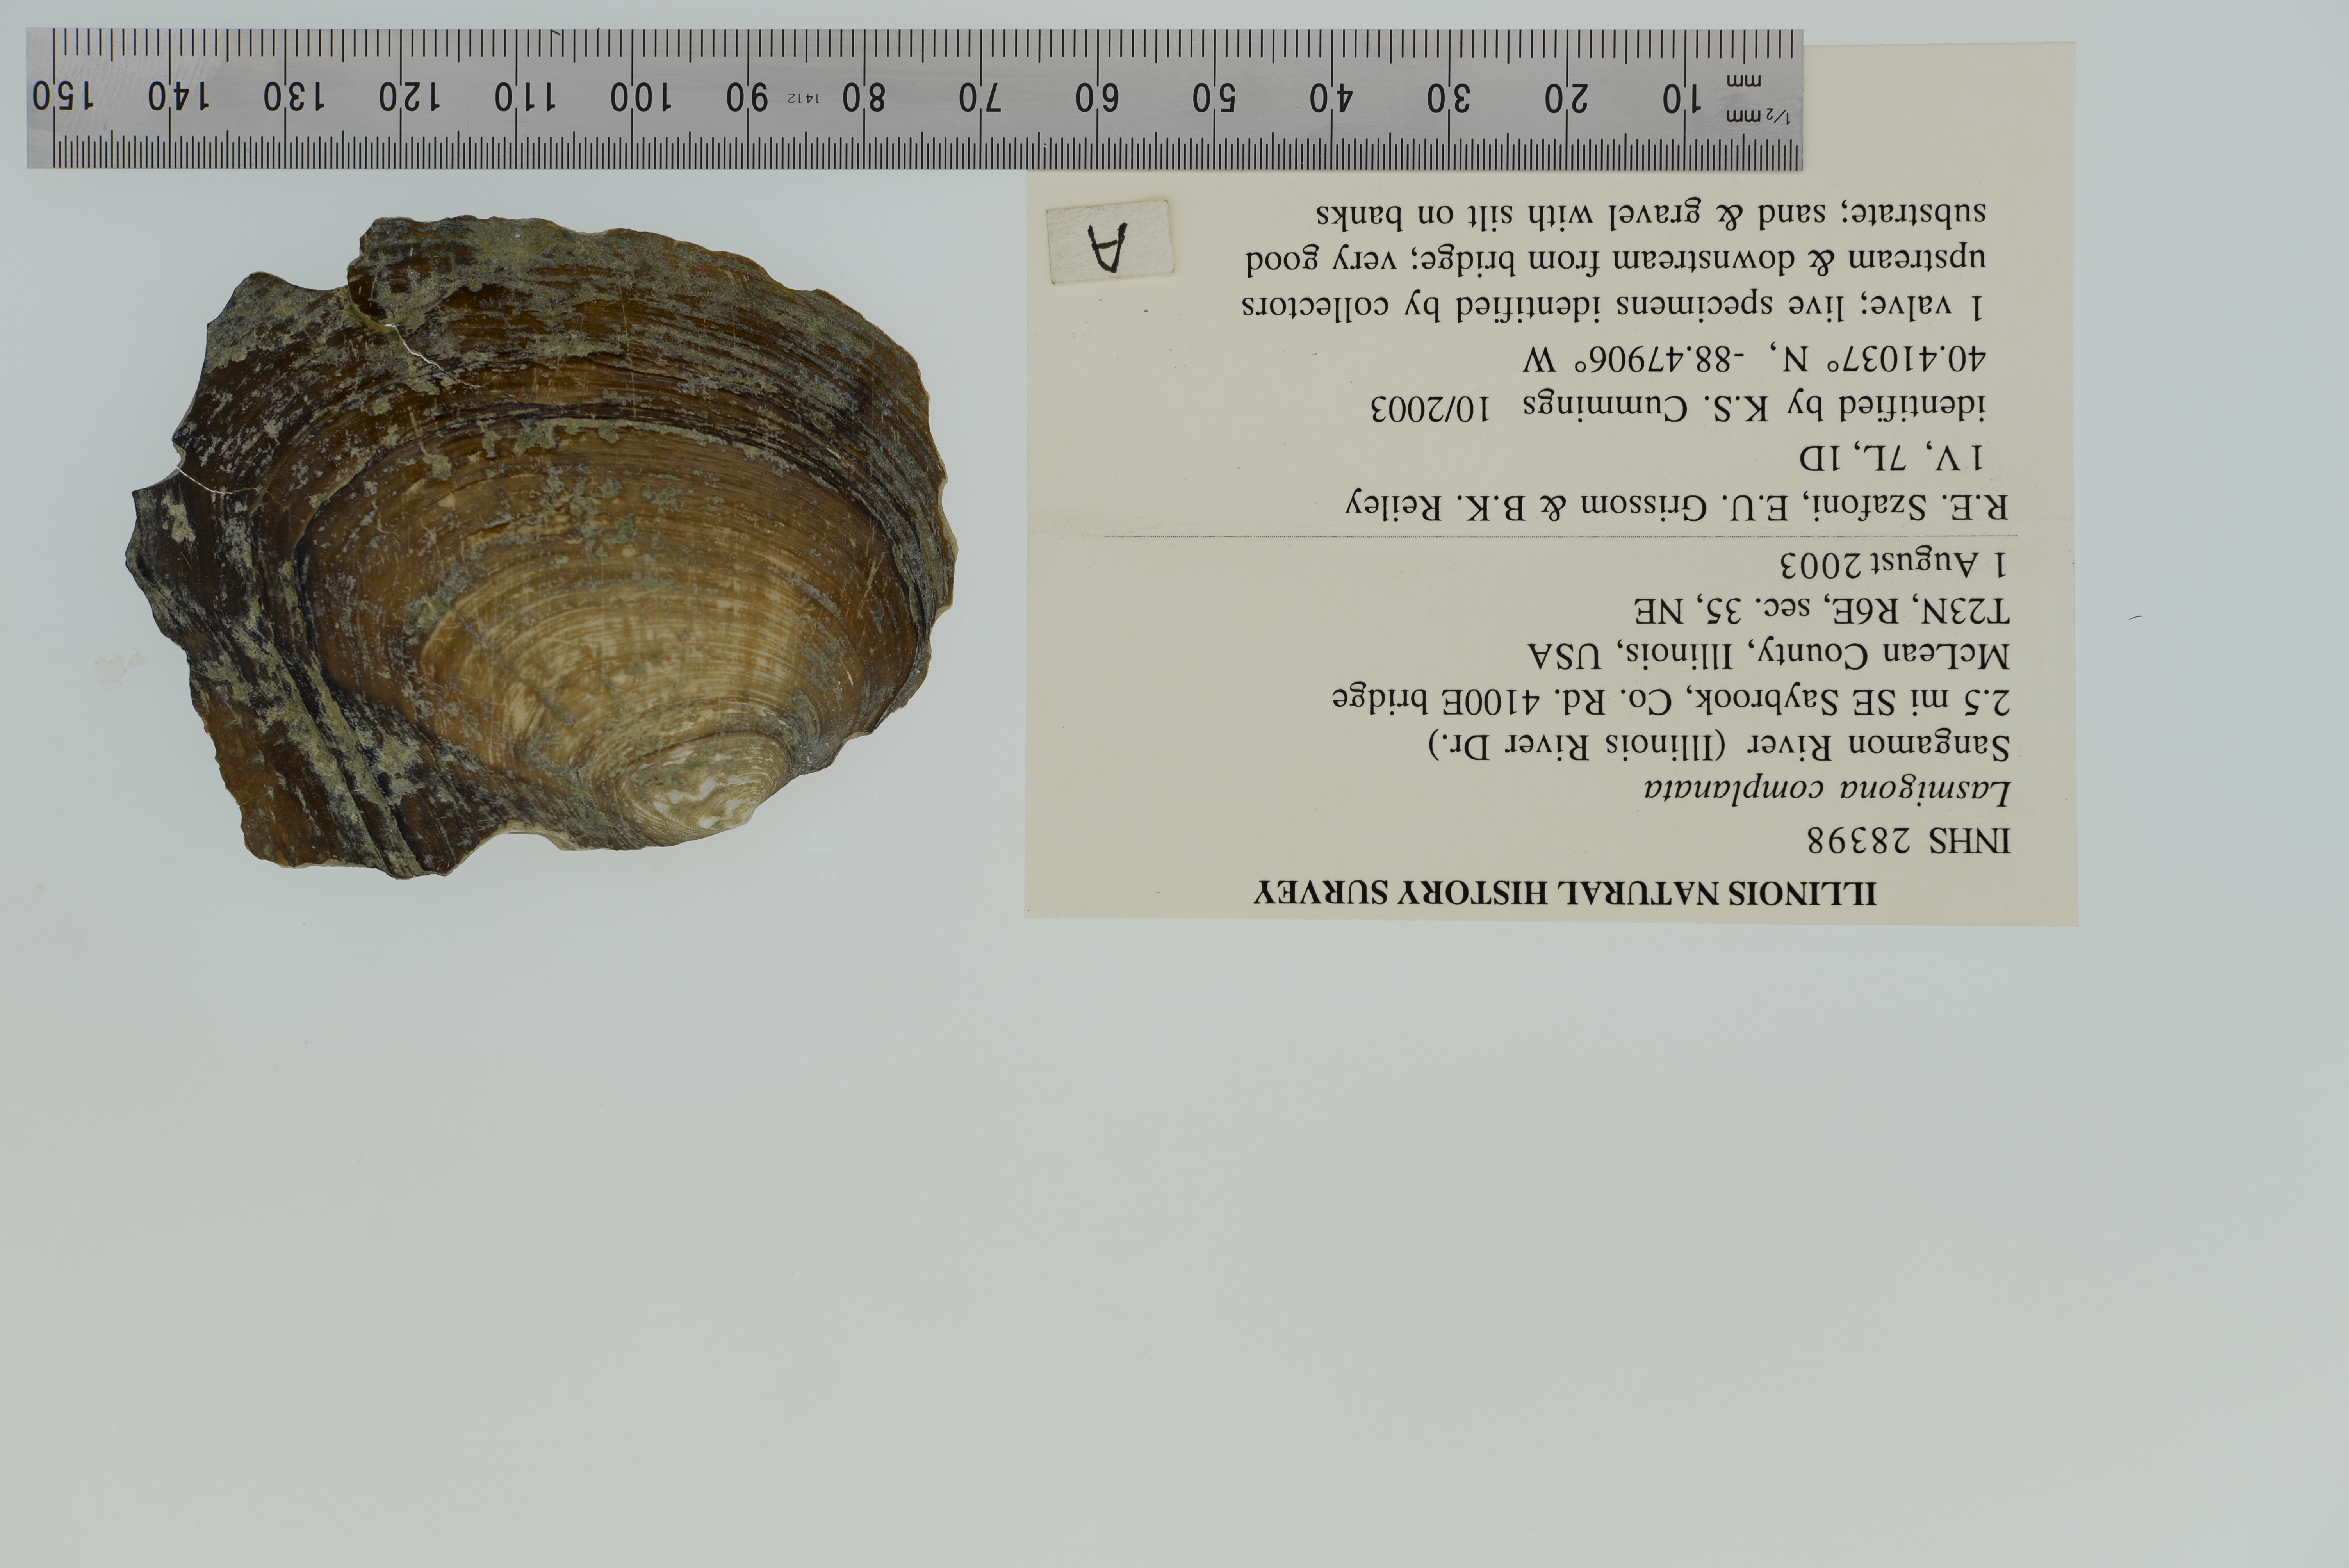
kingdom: Animalia
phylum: Mollusca
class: Bivalvia
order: Unionida
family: Unionidae
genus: Lasmigona
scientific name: Lasmigona complanata
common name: White heelsplitter
